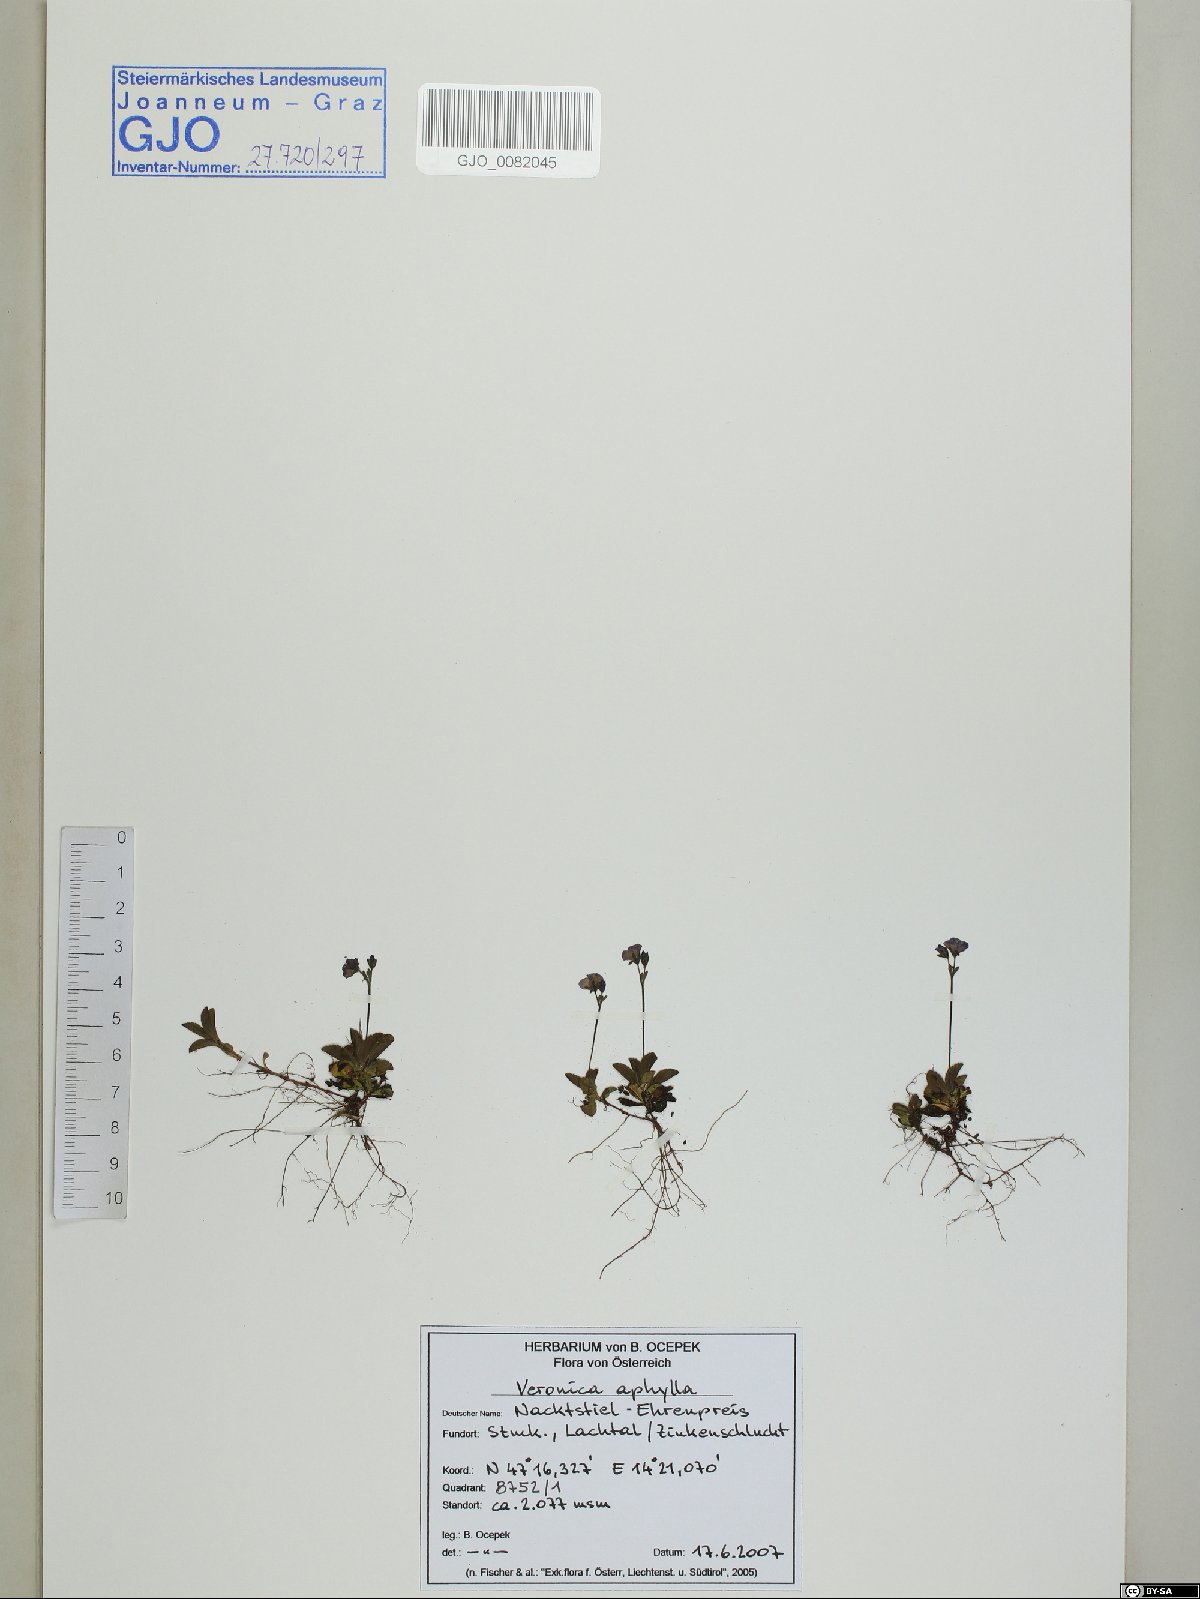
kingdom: Plantae
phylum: Tracheophyta
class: Magnoliopsida
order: Lamiales
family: Plantaginaceae
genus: Veronica
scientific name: Veronica aphylla
